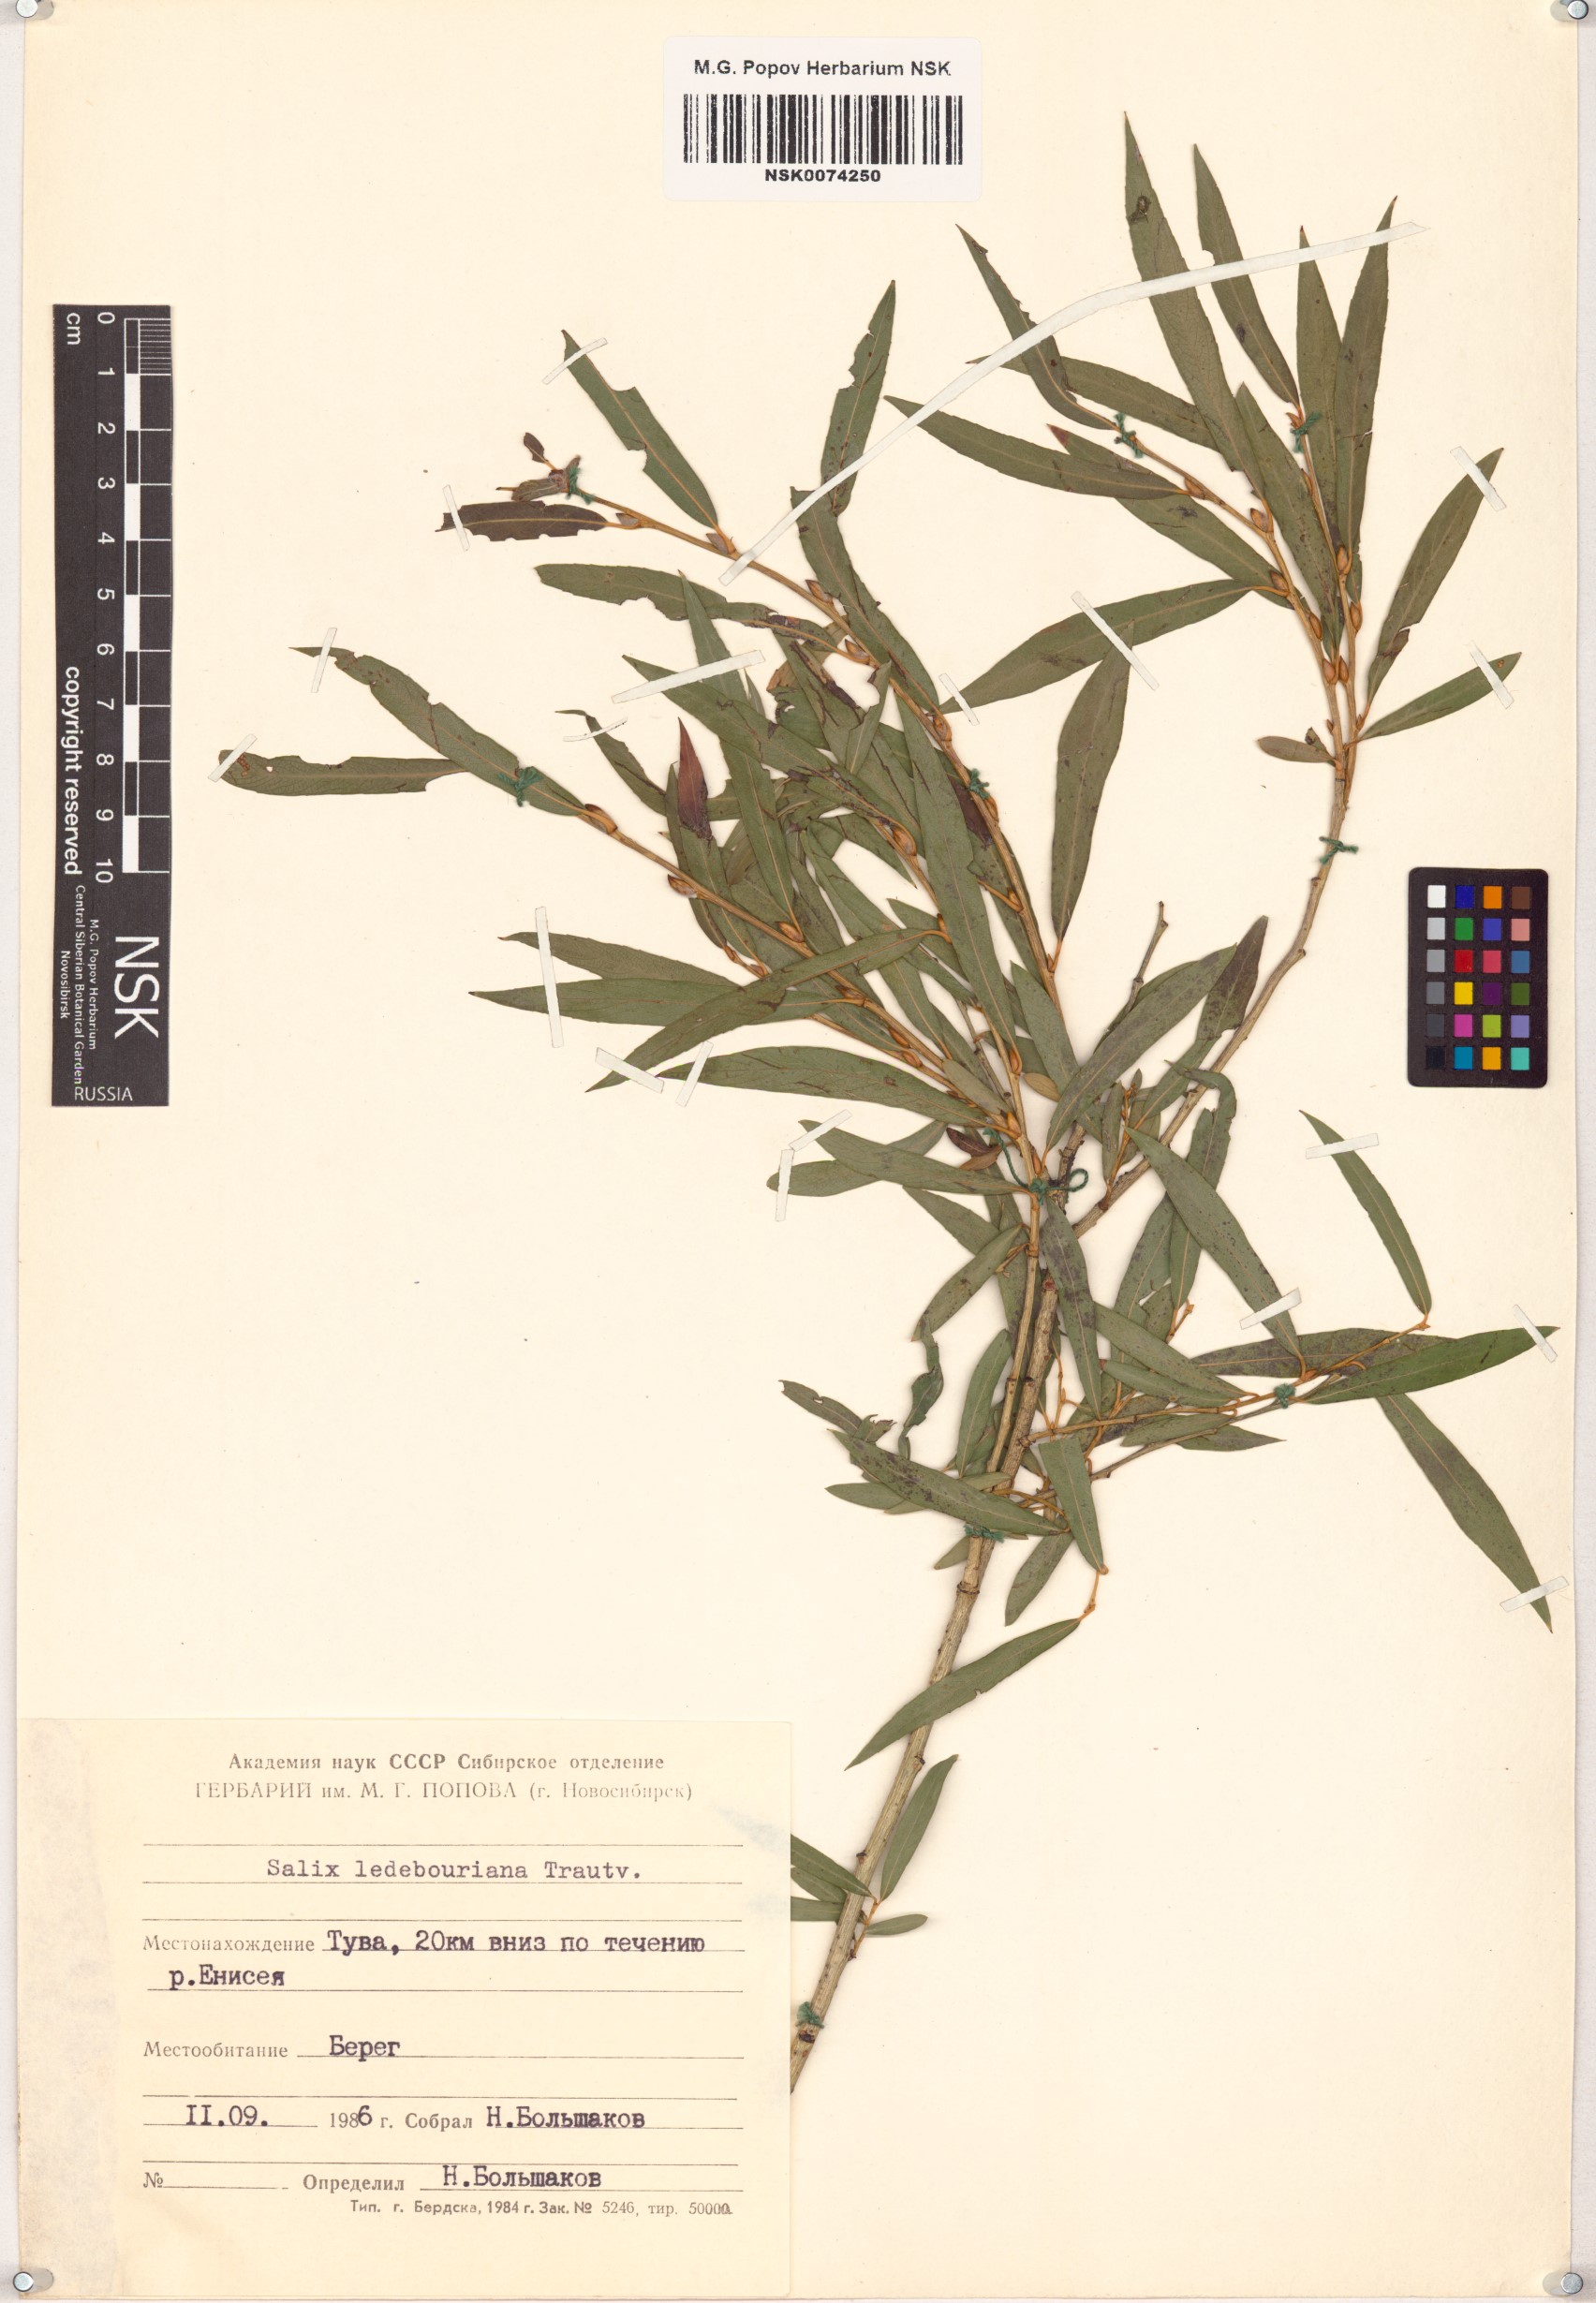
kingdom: Plantae
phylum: Tracheophyta
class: Magnoliopsida
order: Malpighiales
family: Salicaceae
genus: Salix
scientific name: Salix ledebouriana
